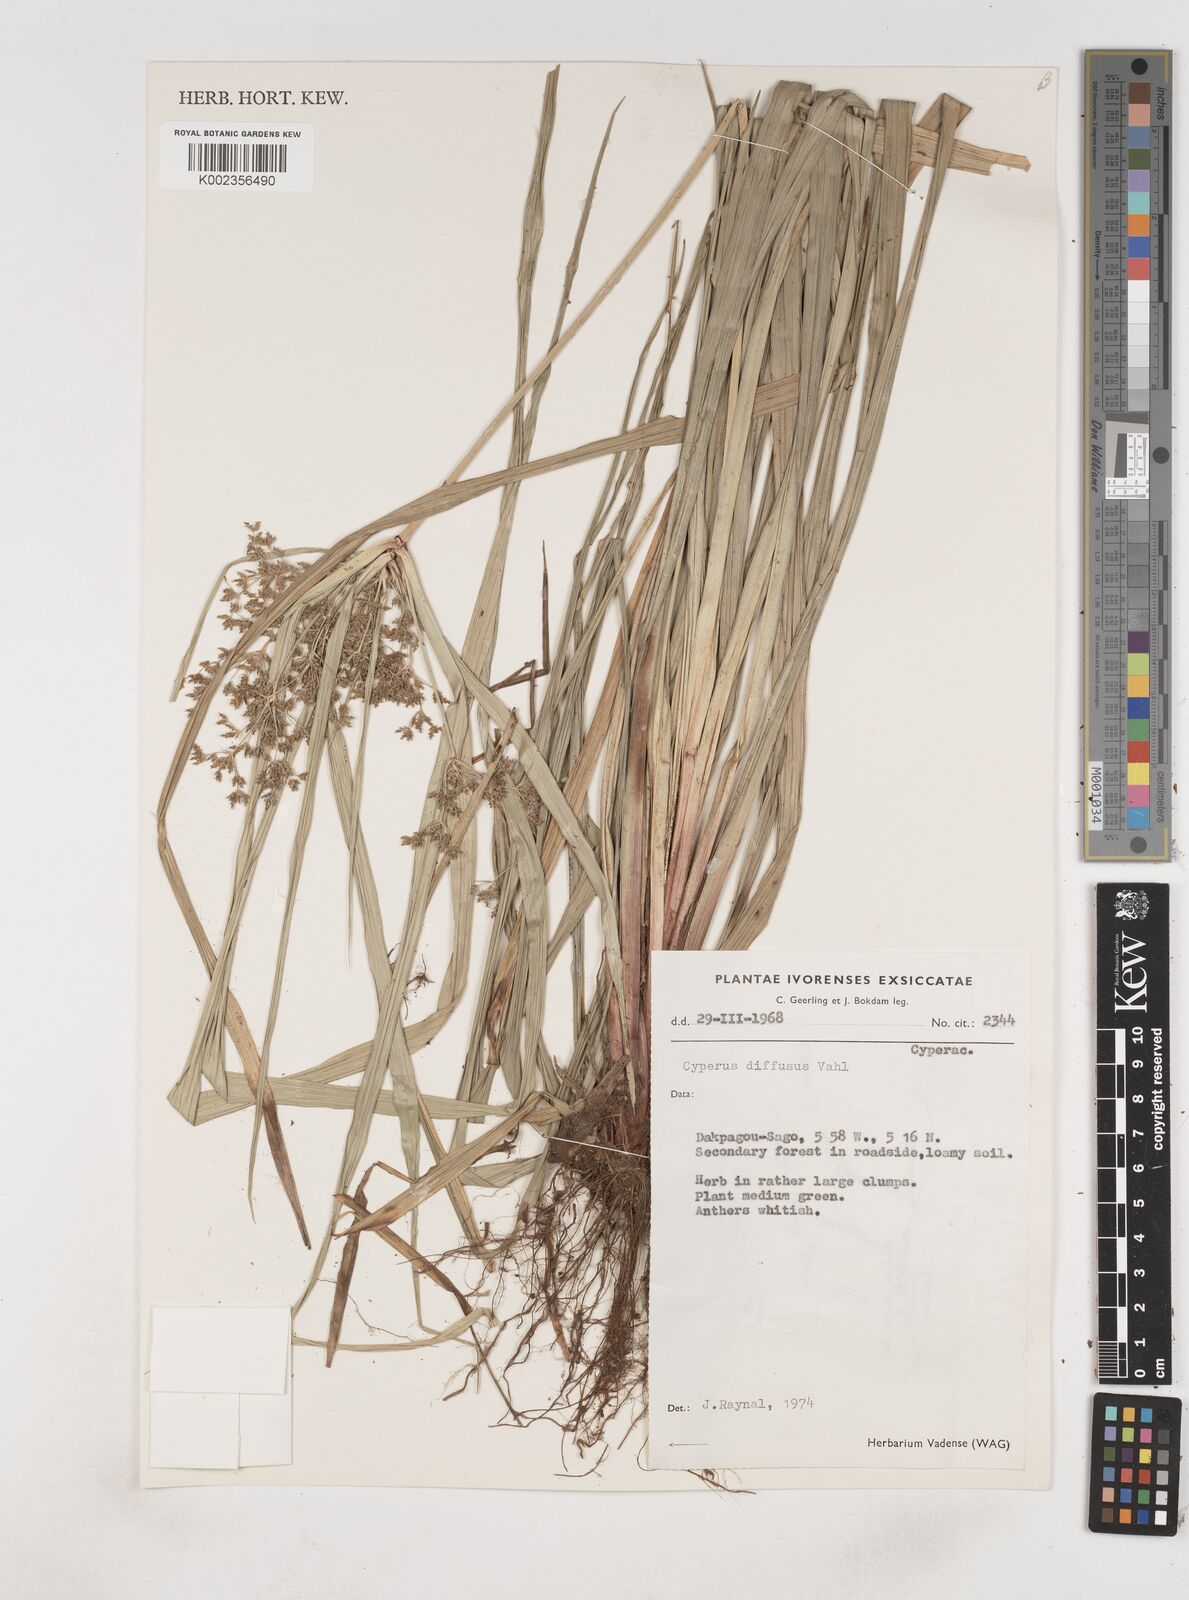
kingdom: Plantae
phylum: Tracheophyta
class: Liliopsida
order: Poales
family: Cyperaceae
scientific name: Cyperaceae
